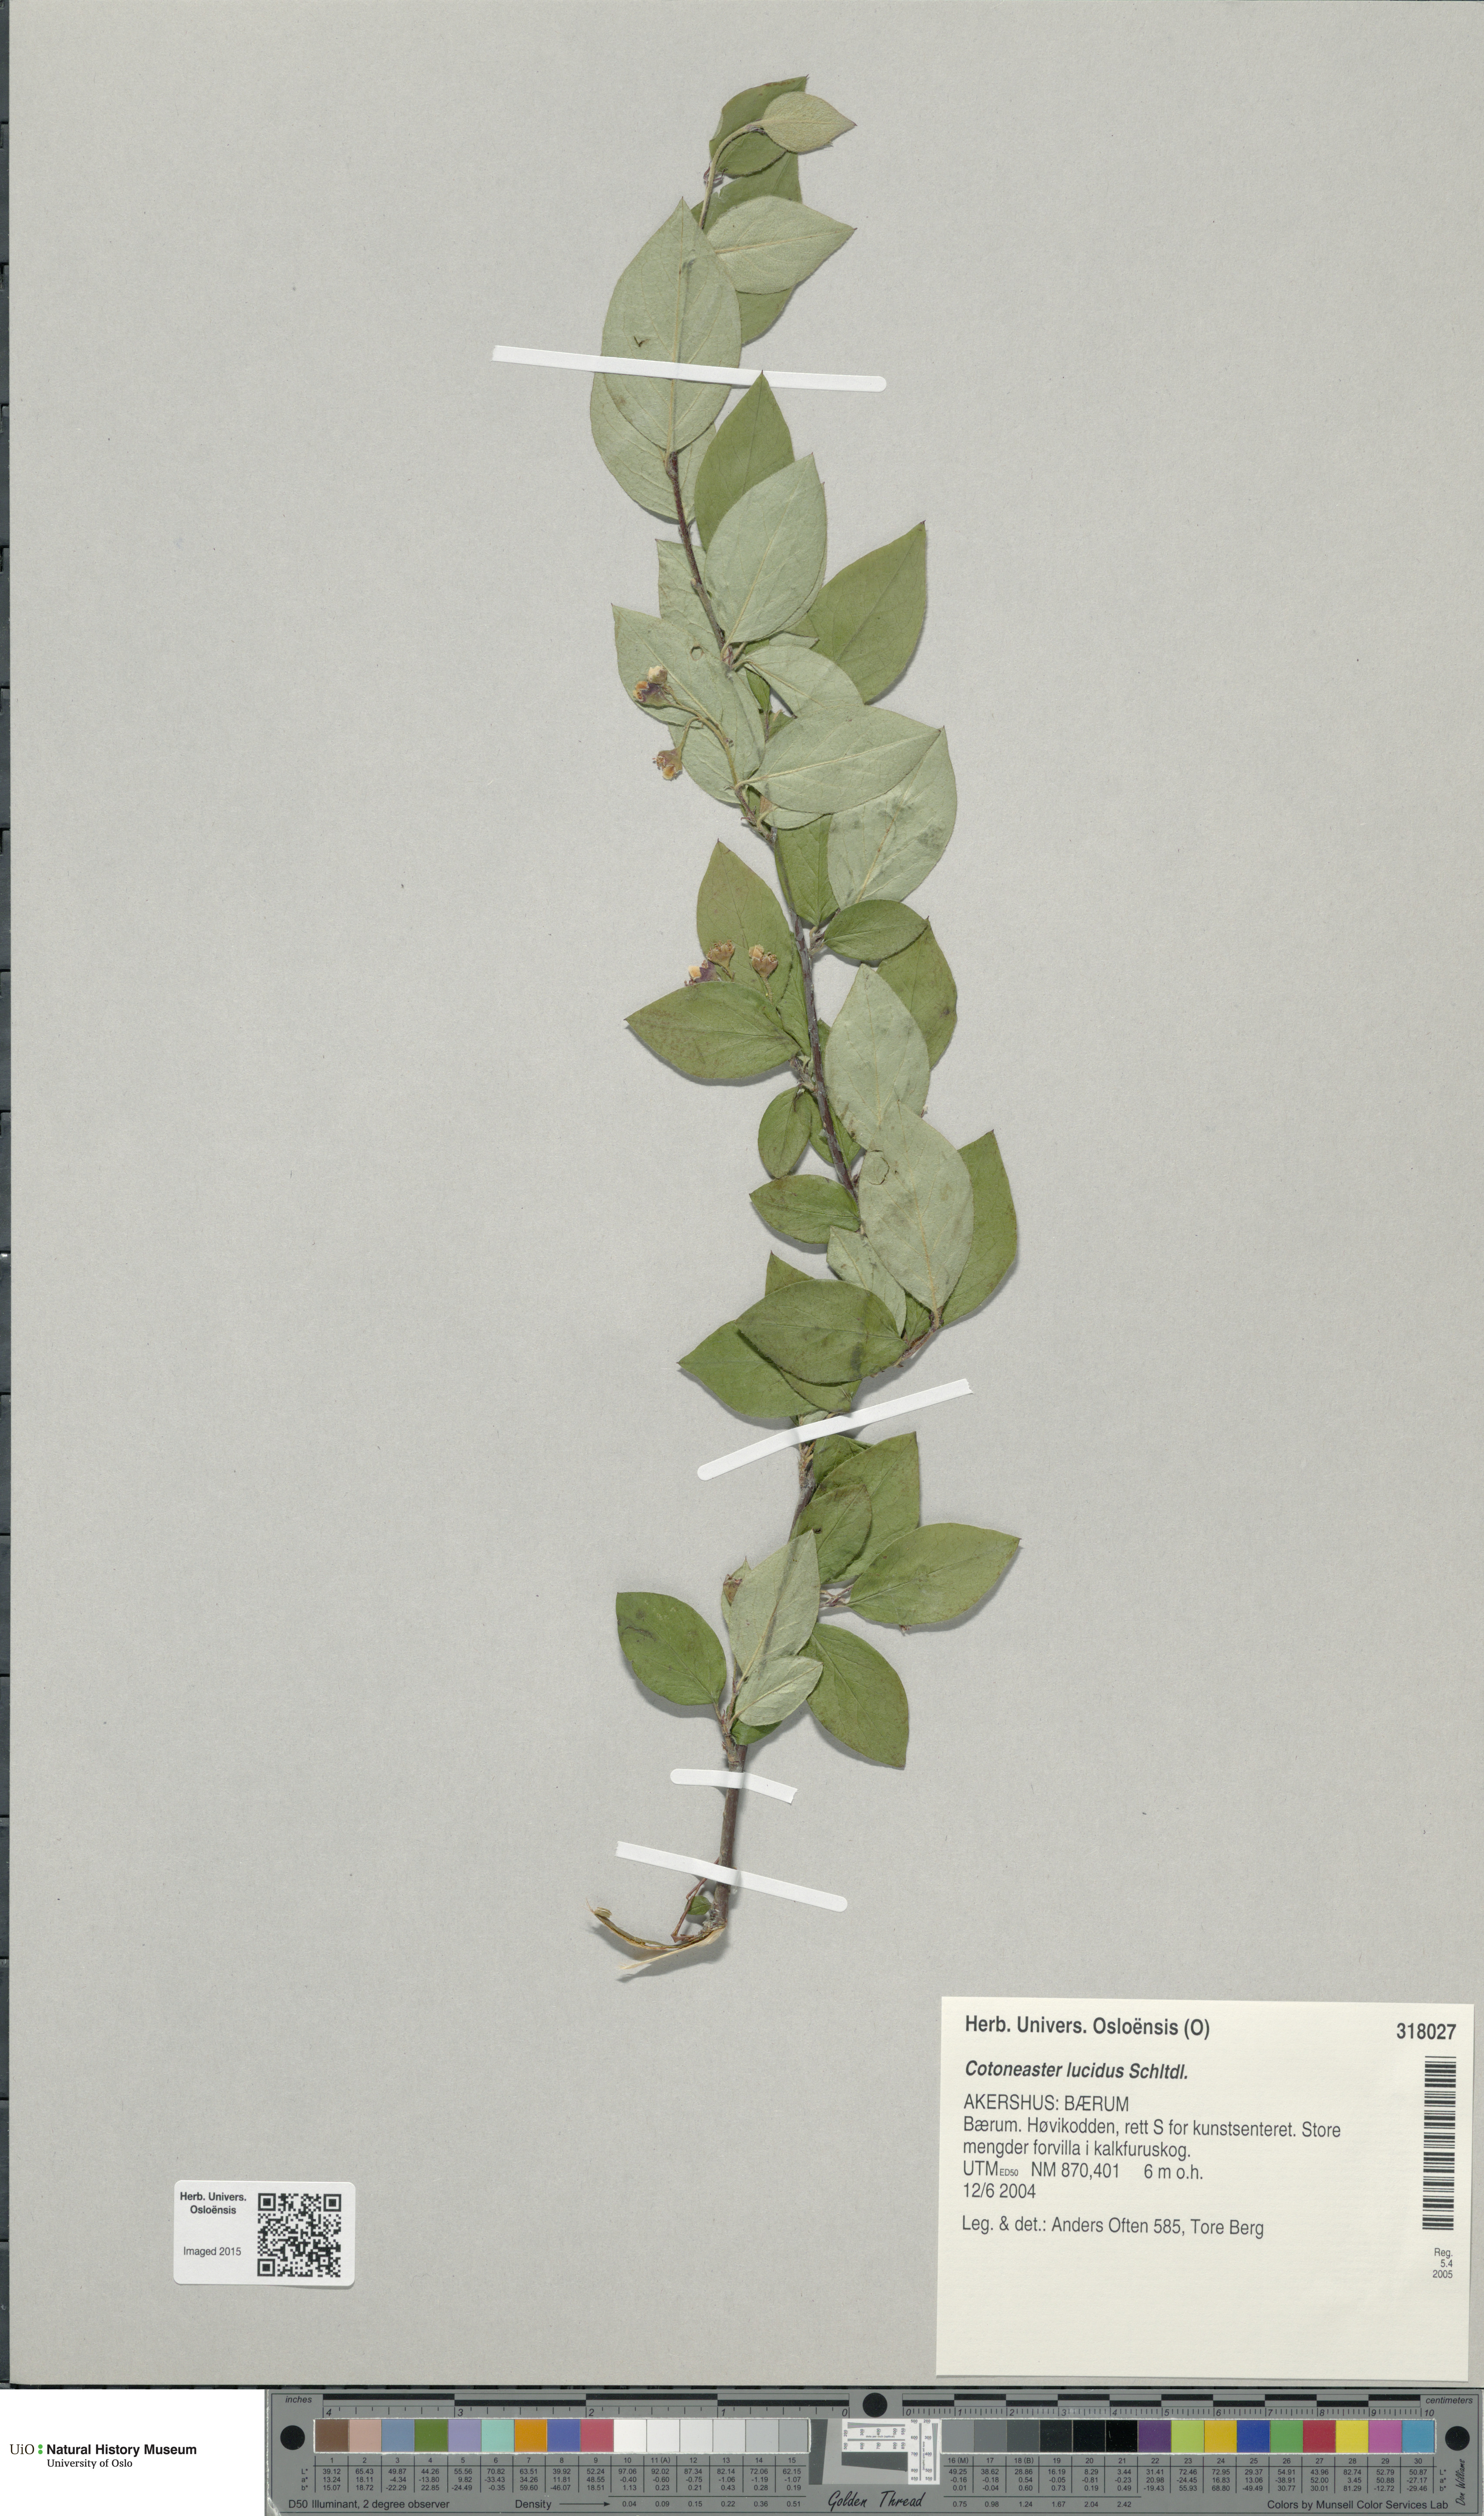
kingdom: Plantae
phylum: Tracheophyta
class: Magnoliopsida
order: Rosales
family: Rosaceae
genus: Cotoneaster
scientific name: Cotoneaster acutifolius
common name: Peking cotoneaster
